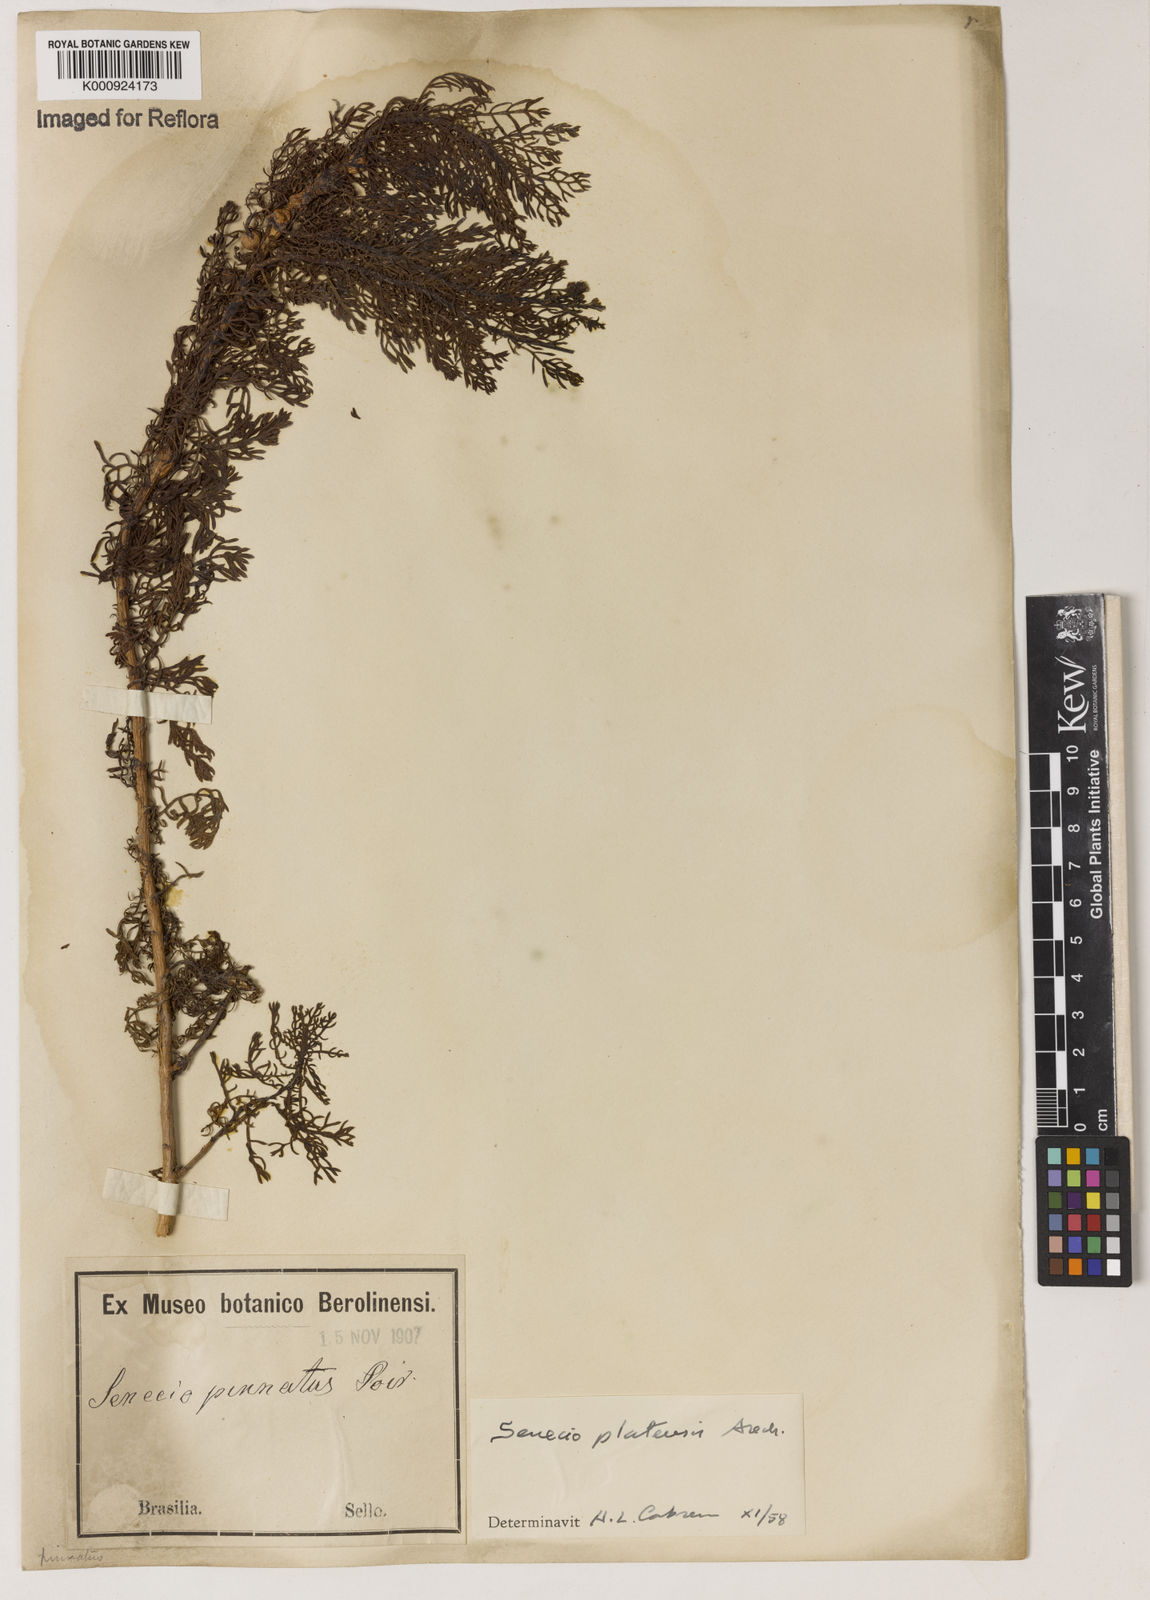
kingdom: Plantae
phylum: Tracheophyta
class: Magnoliopsida
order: Asterales
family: Asteraceae
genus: Senecio
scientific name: Senecio platensis
